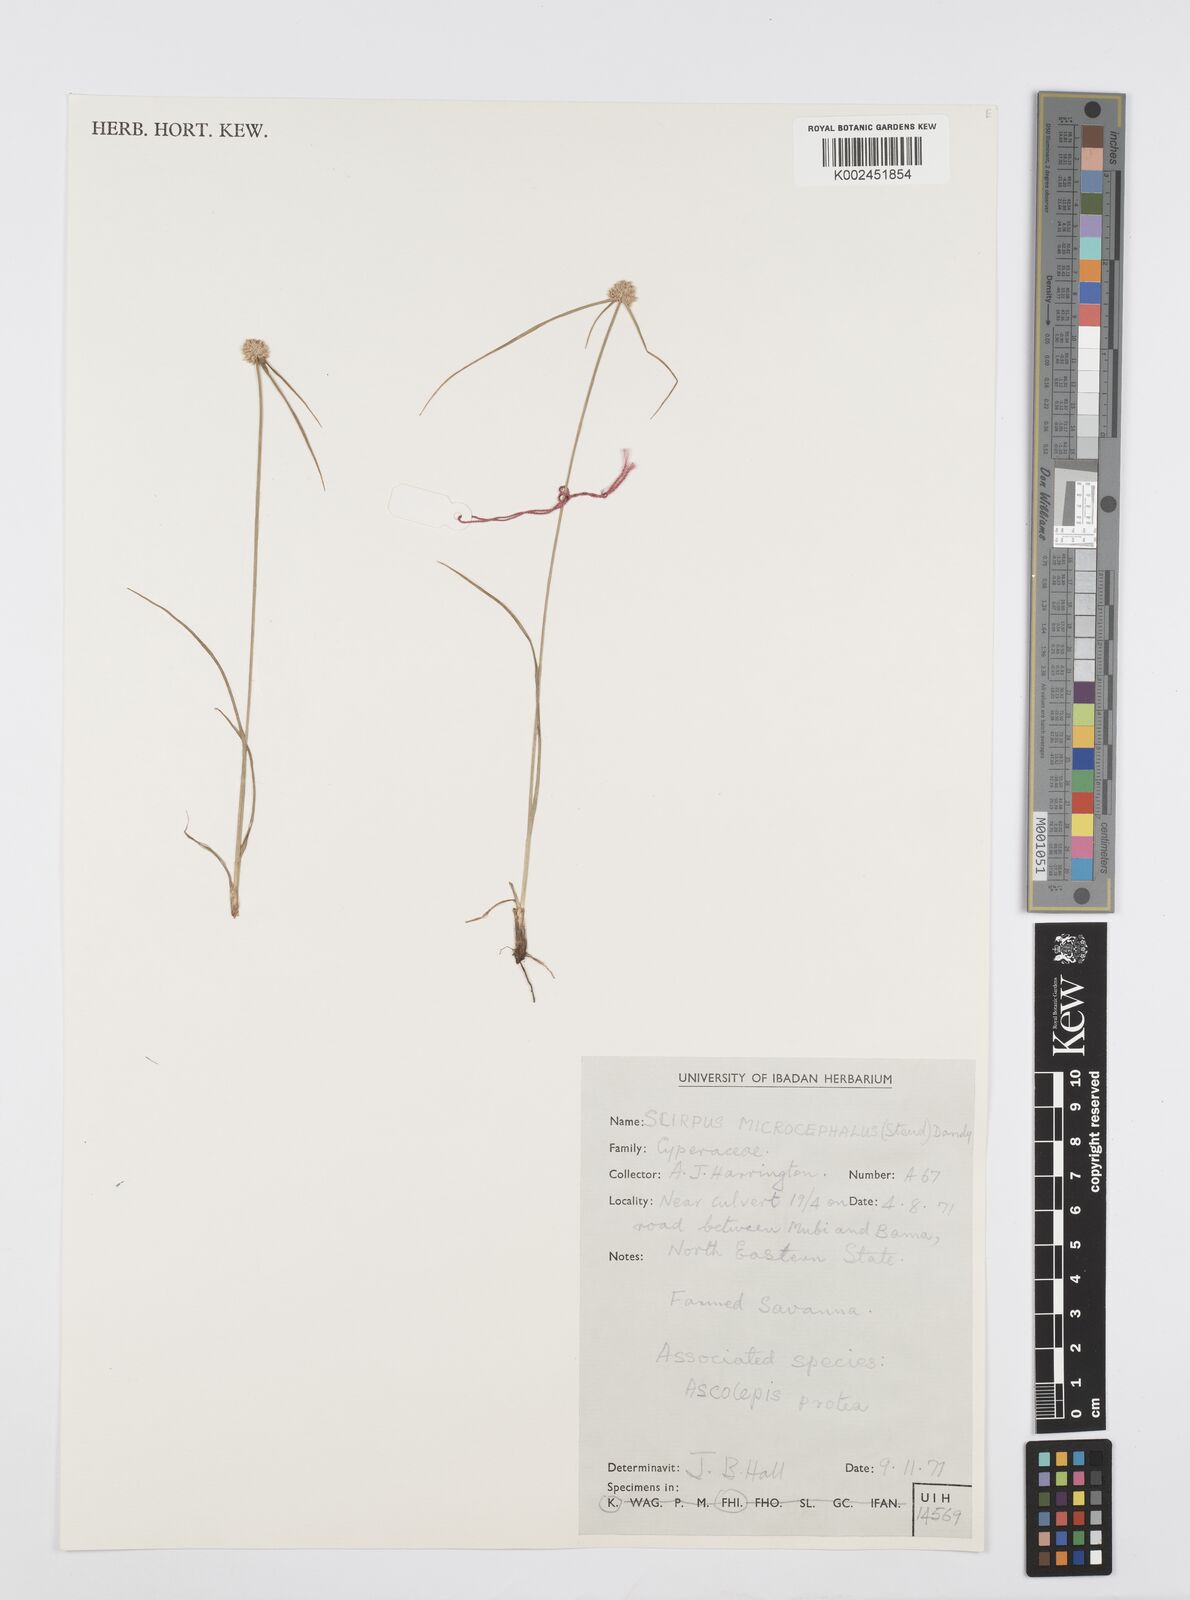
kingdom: Plantae
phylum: Tracheophyta
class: Liliopsida
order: Poales
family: Cyperaceae
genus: Cyperus
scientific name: Cyperus microcephalus
